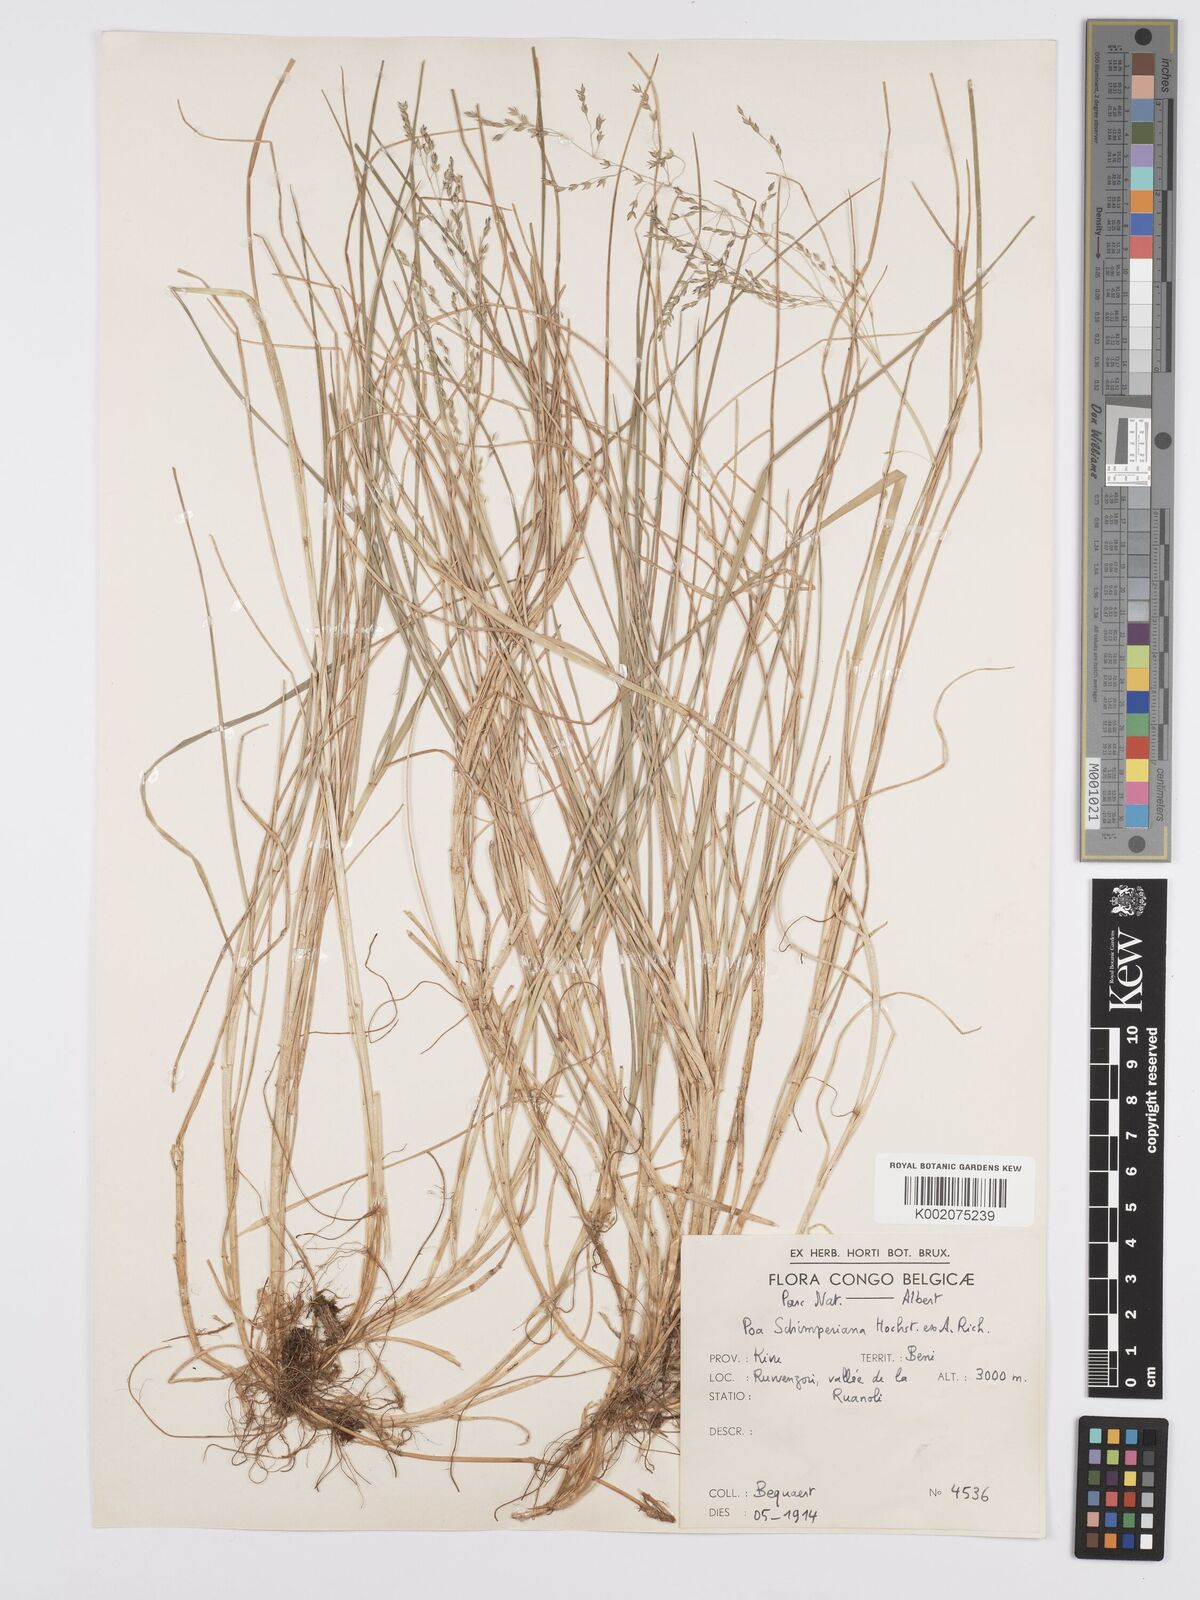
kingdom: Plantae
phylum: Tracheophyta
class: Liliopsida
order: Poales
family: Poaceae
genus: Poa
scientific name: Poa schimperiana
